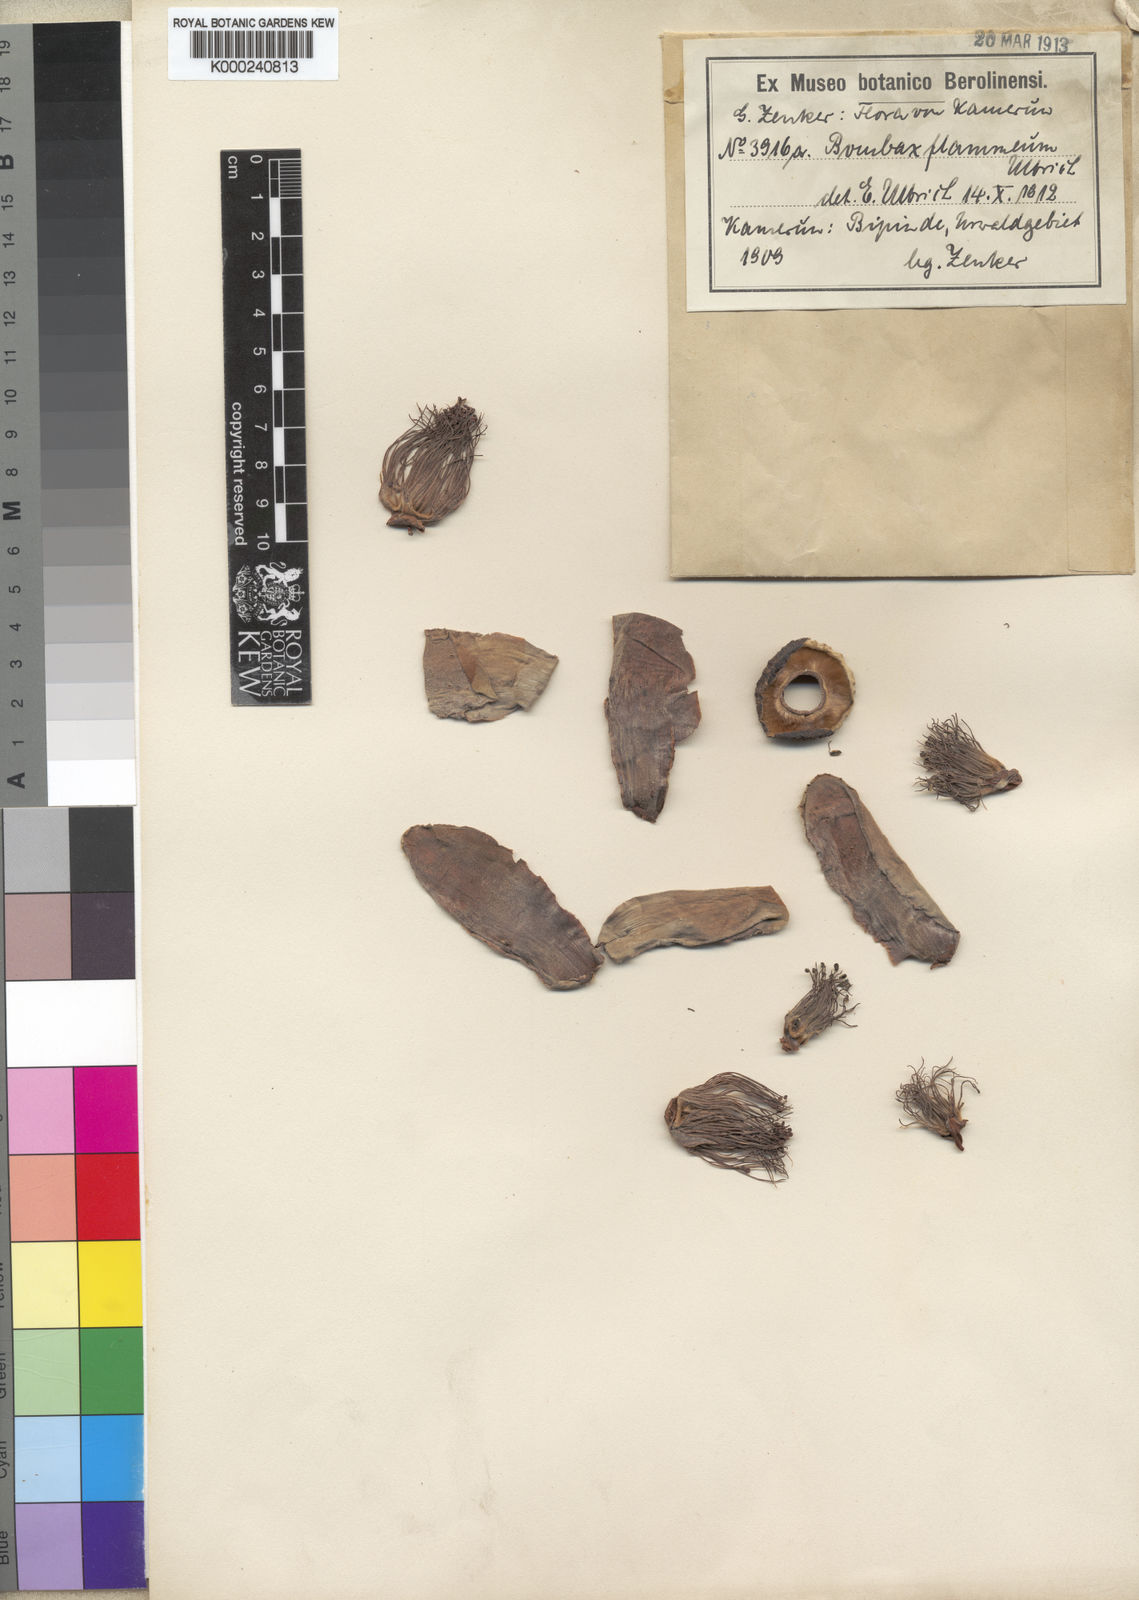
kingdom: Plantae
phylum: Tracheophyta
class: Magnoliopsida
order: Malvales
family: Malvaceae
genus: Bombax
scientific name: Bombax buonopozense
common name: Gold coast bombax
